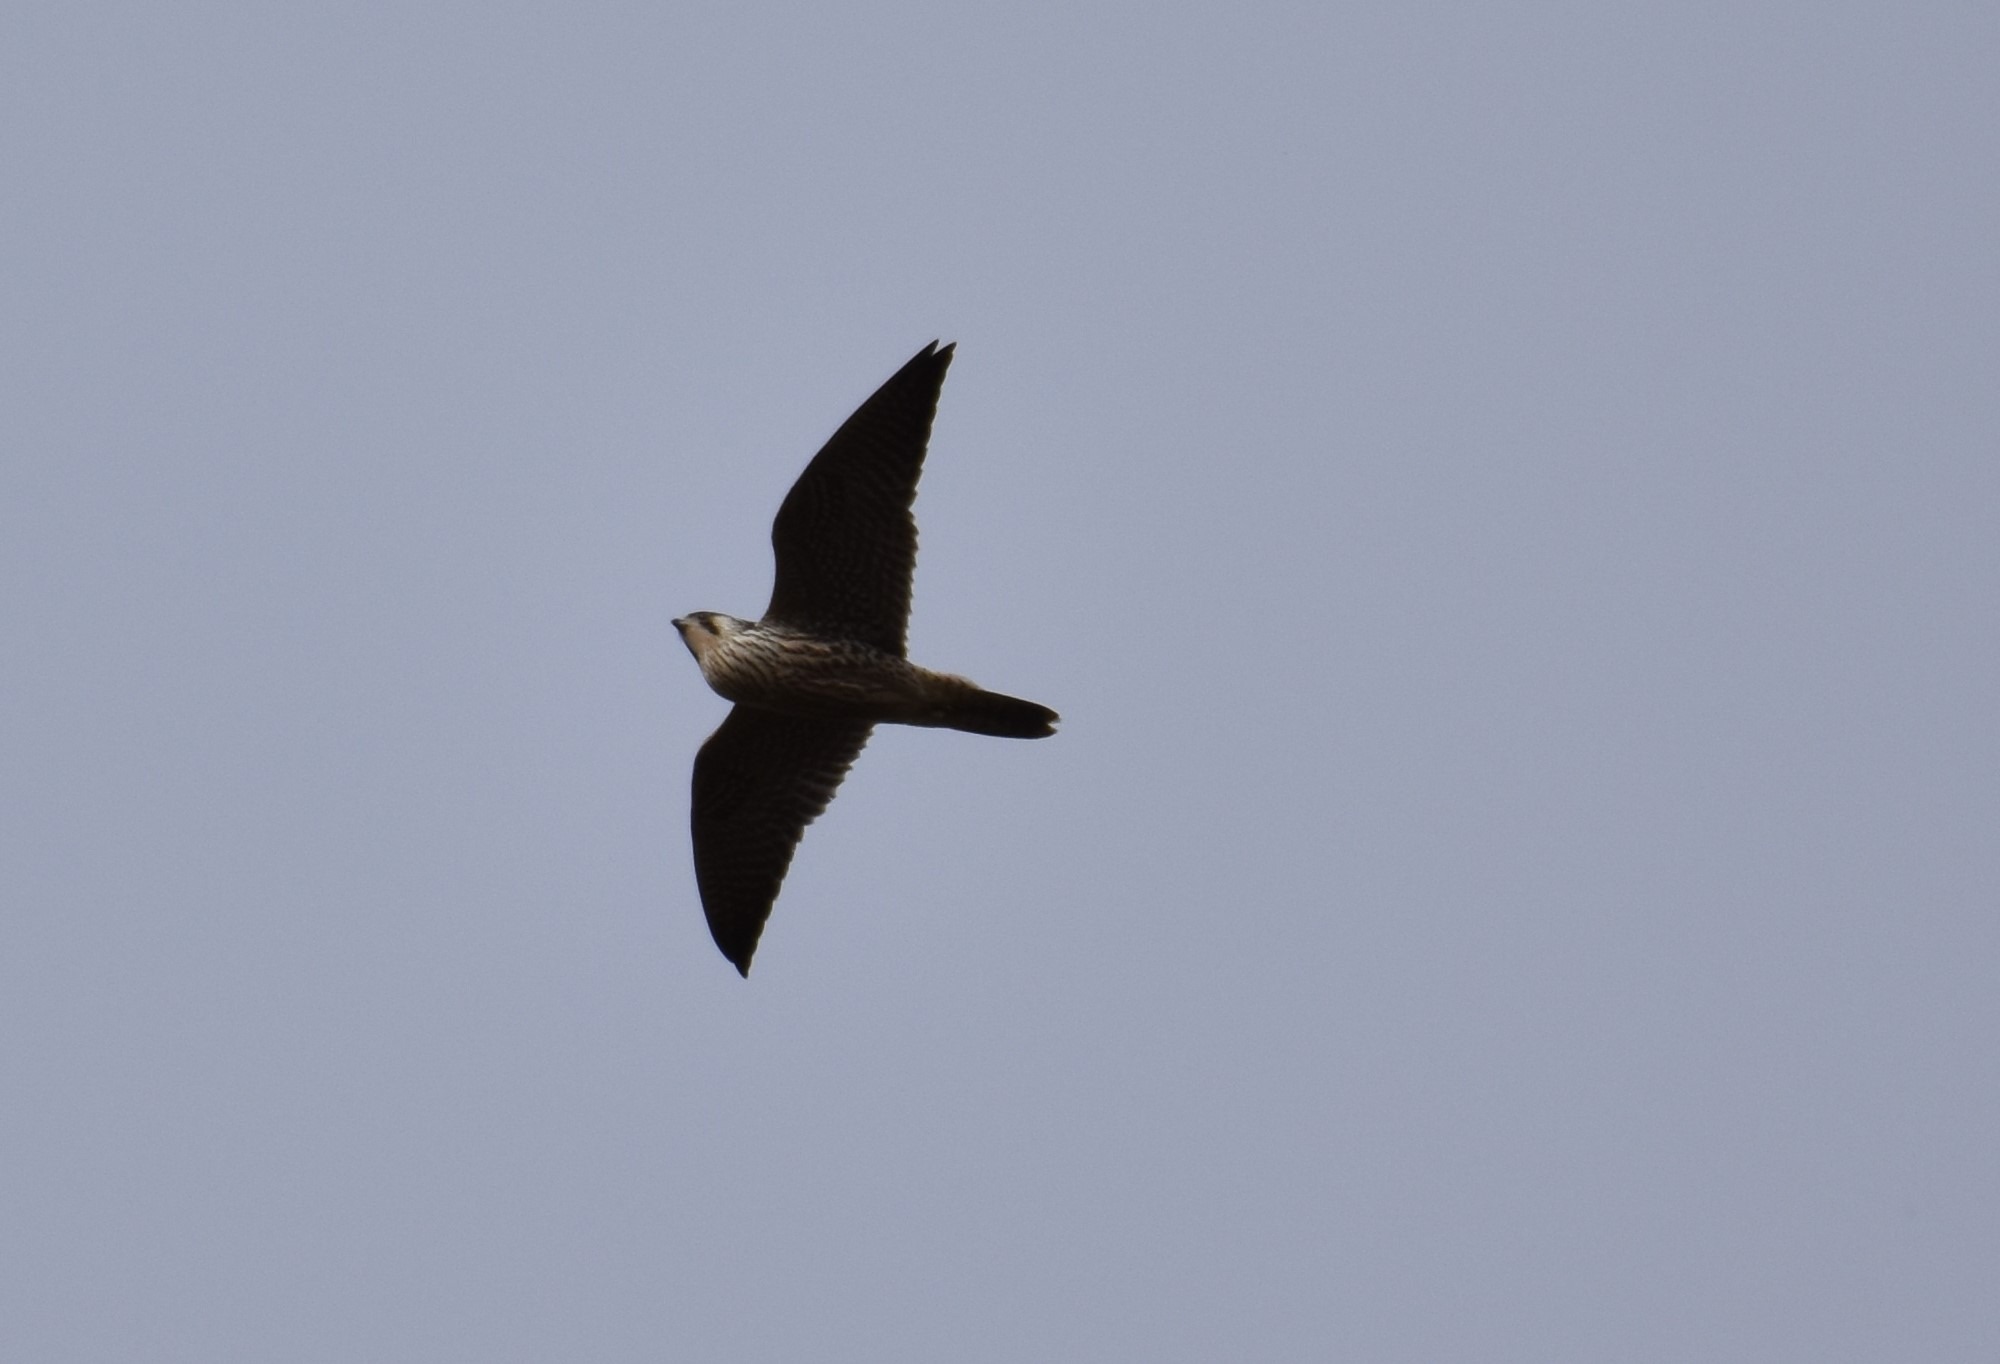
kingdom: Animalia
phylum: Chordata
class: Aves
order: Falconiformes
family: Falconidae
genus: Falco
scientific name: Falco peregrinus
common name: Vandrefalk
